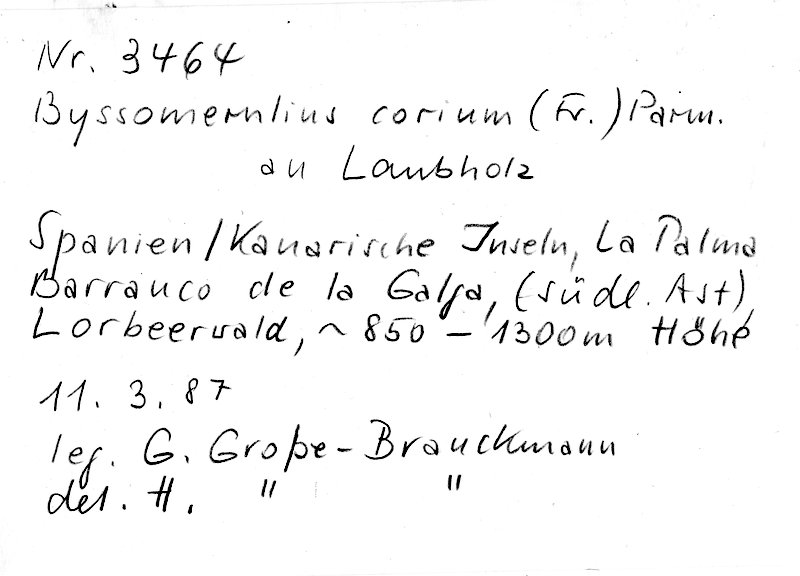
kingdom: Fungi
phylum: Basidiomycota
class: Agaricomycetes
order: Polyporales
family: Irpicaceae
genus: Byssomerulius
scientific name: Byssomerulius corium
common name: Netted crust
